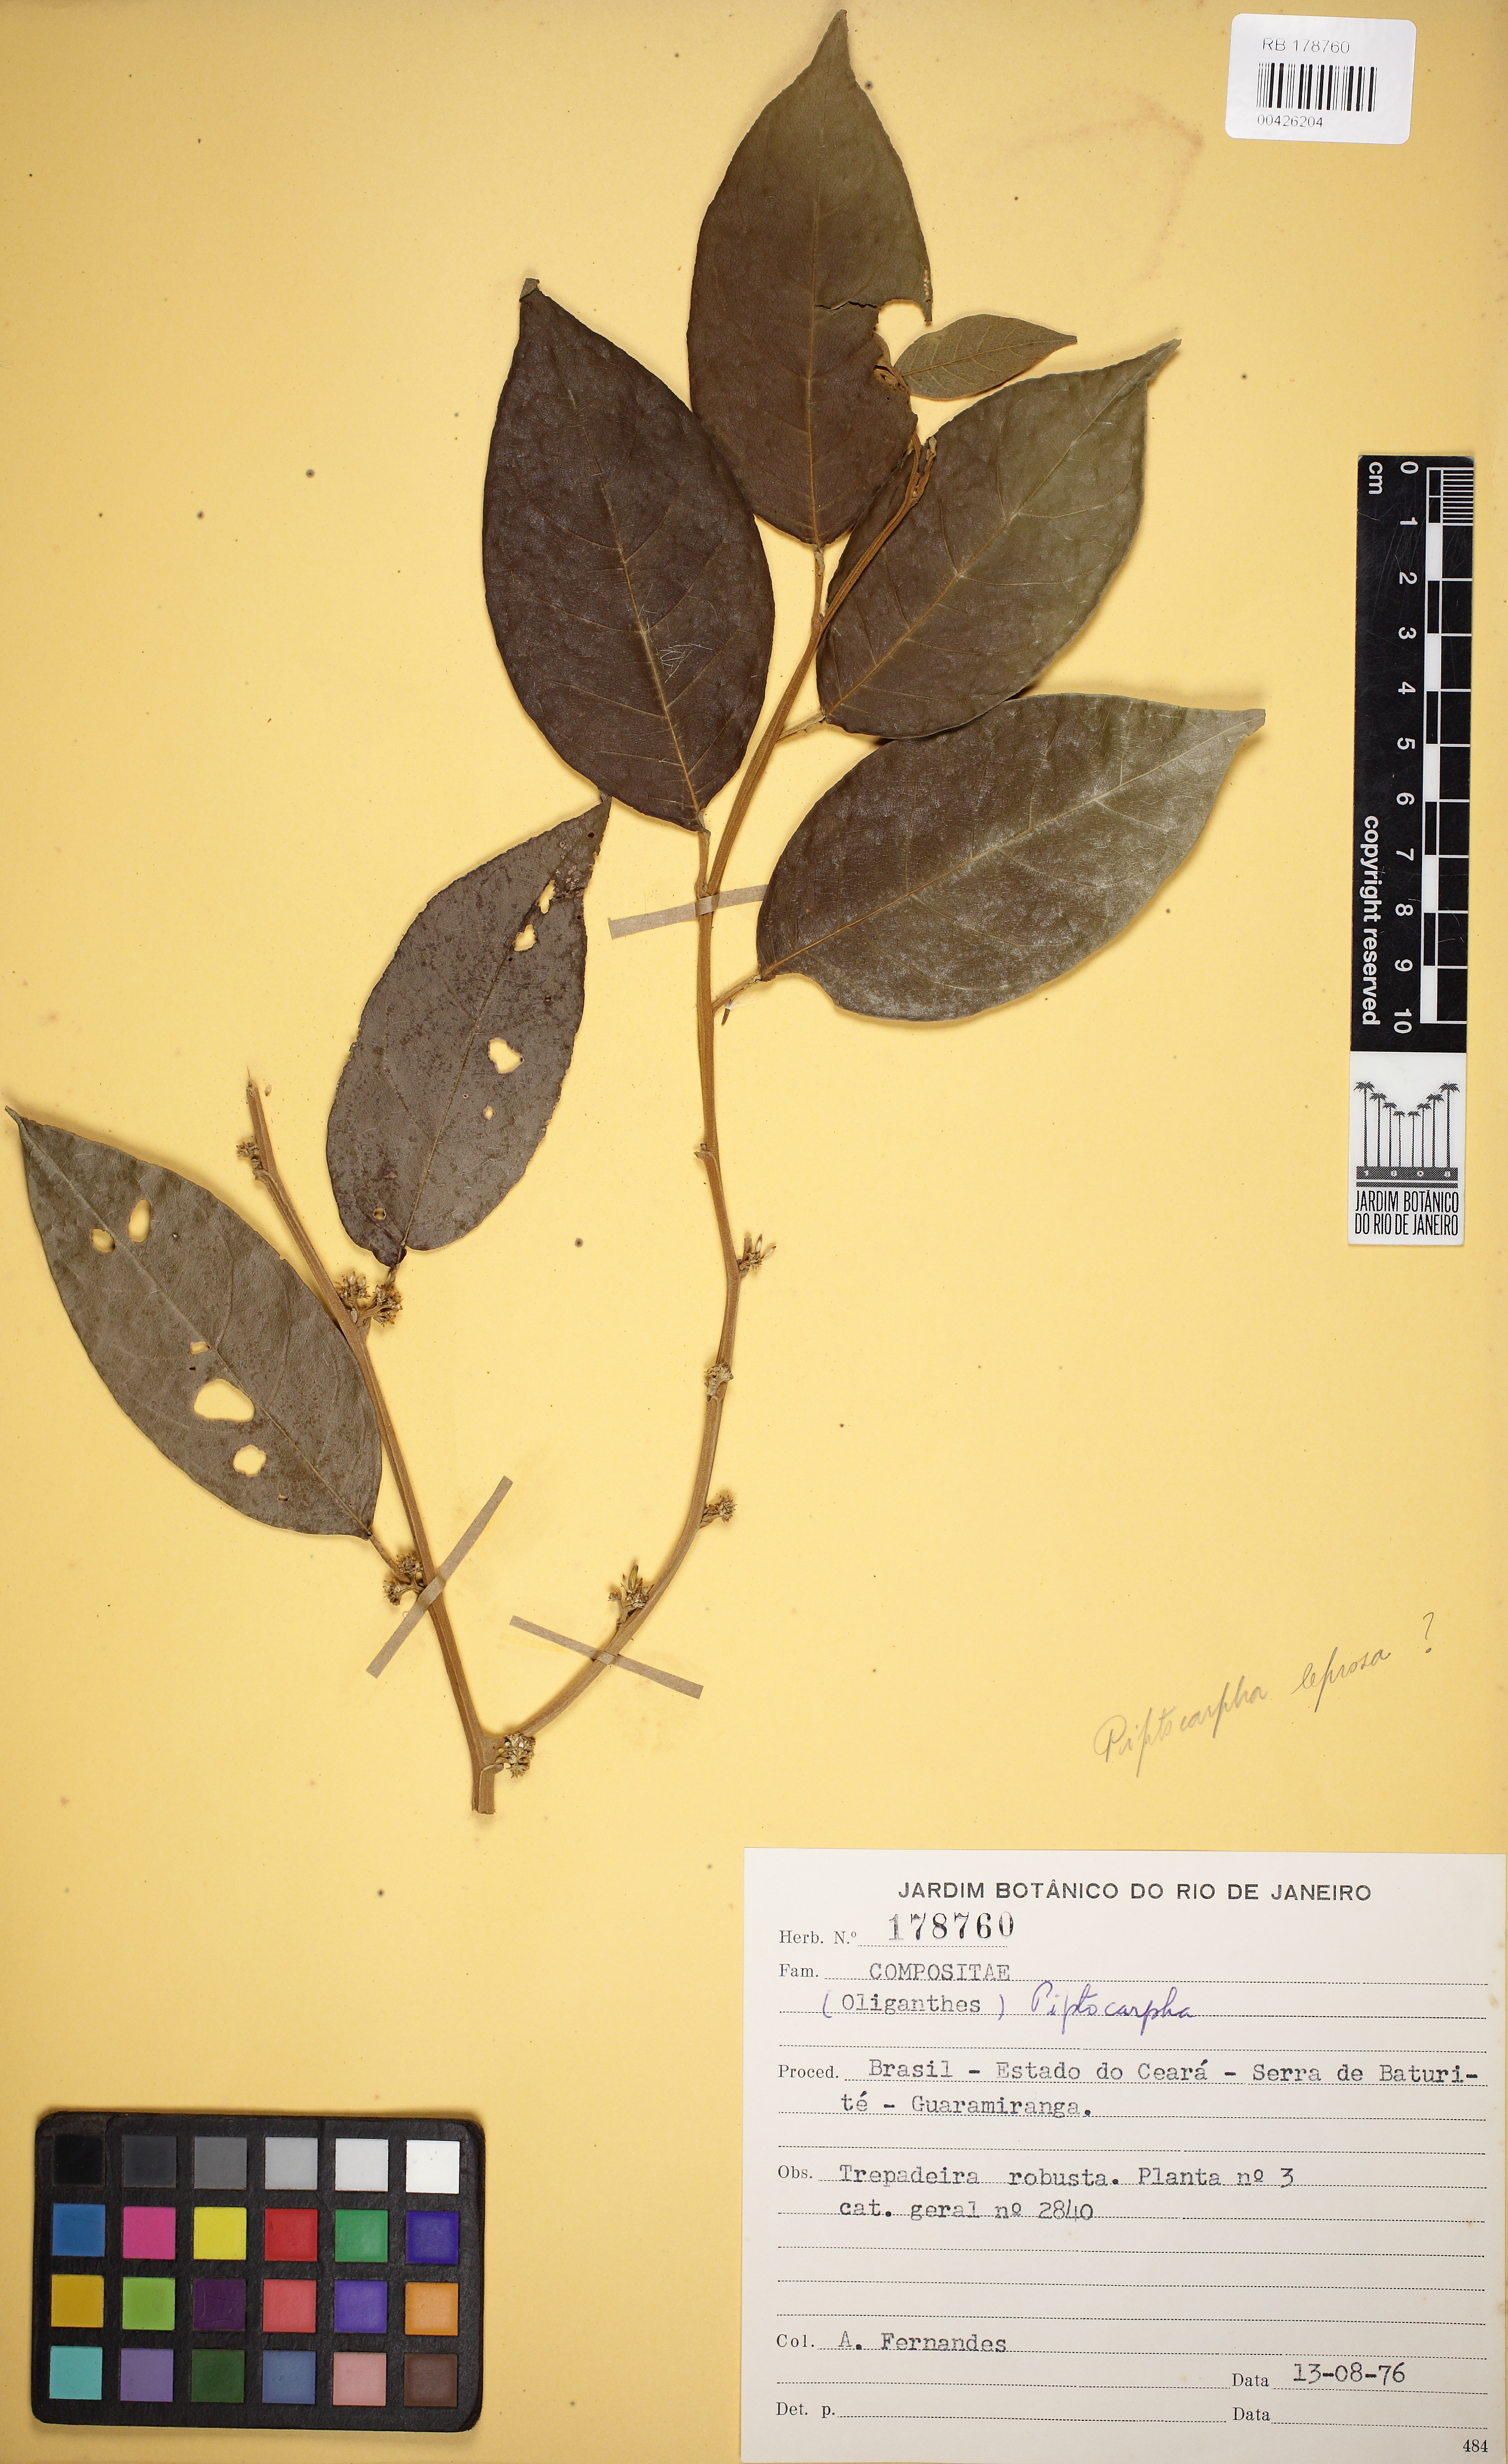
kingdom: Plantae
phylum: Tracheophyta
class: Magnoliopsida
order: Asterales
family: Asteraceae
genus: Piptocarpha
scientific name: Piptocarpha
